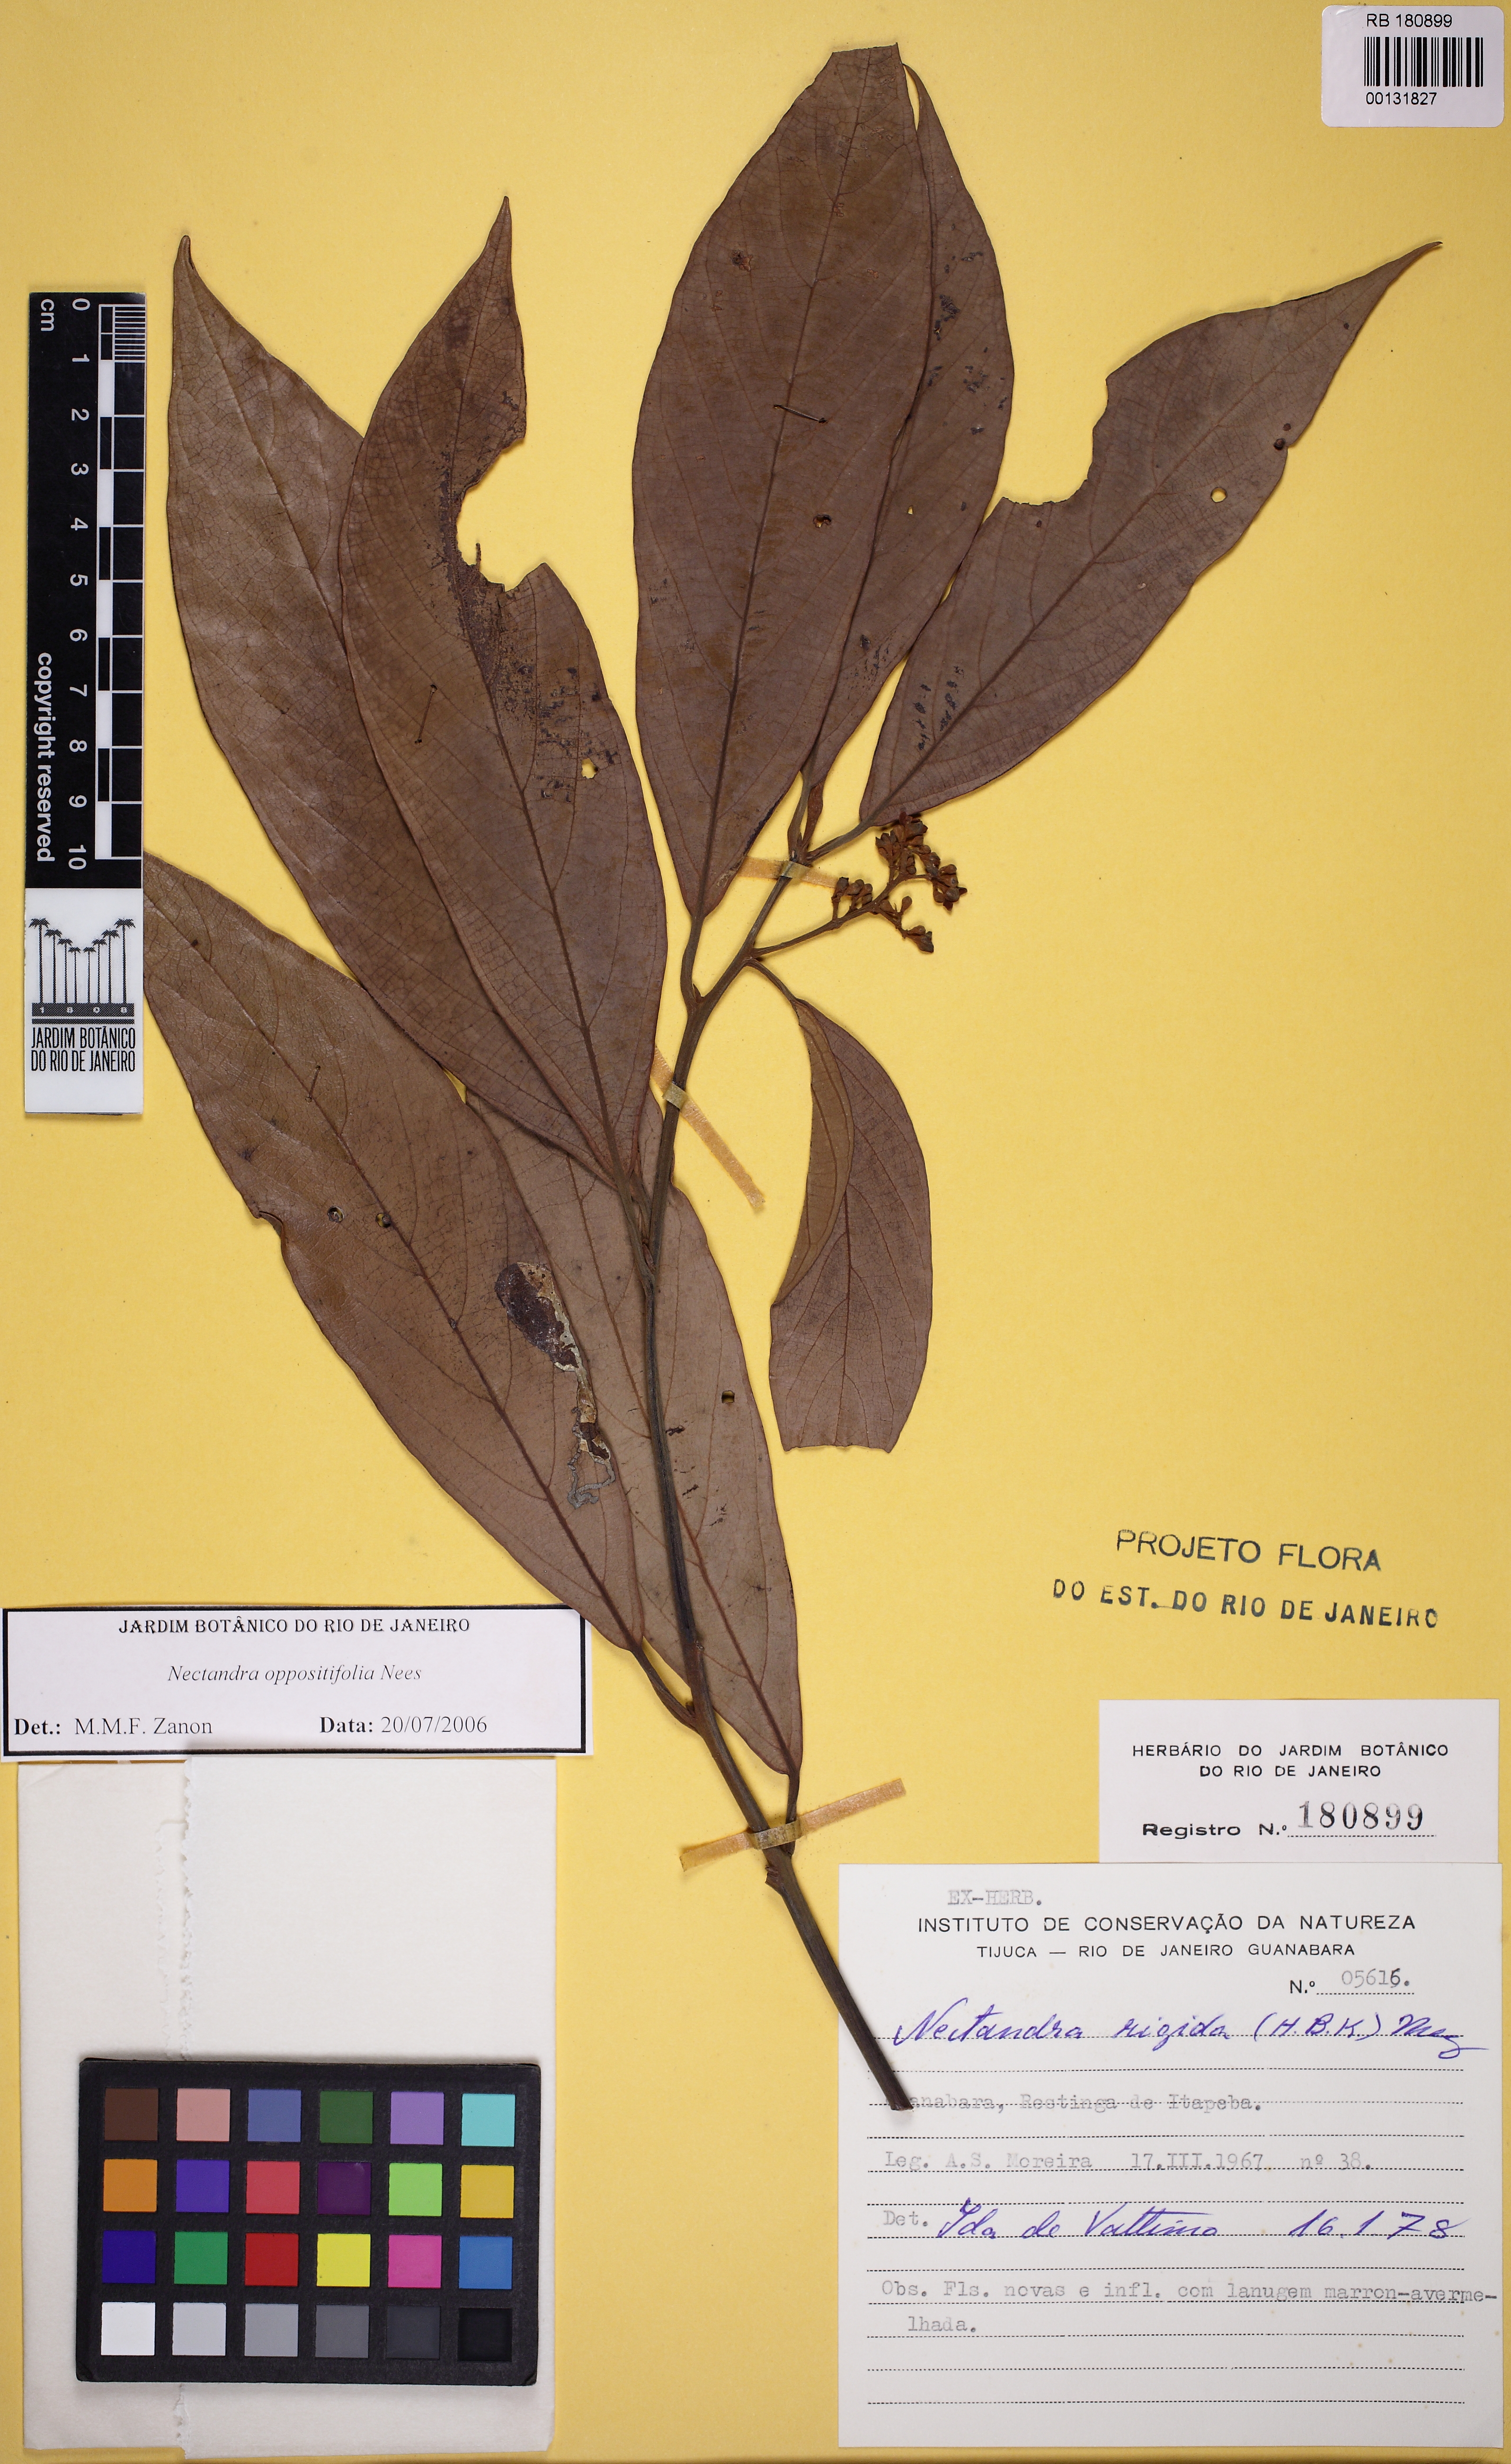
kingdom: Plantae
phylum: Tracheophyta
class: Magnoliopsida
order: Laurales
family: Lauraceae
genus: Nectandra
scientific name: Nectandra oppositifolia
